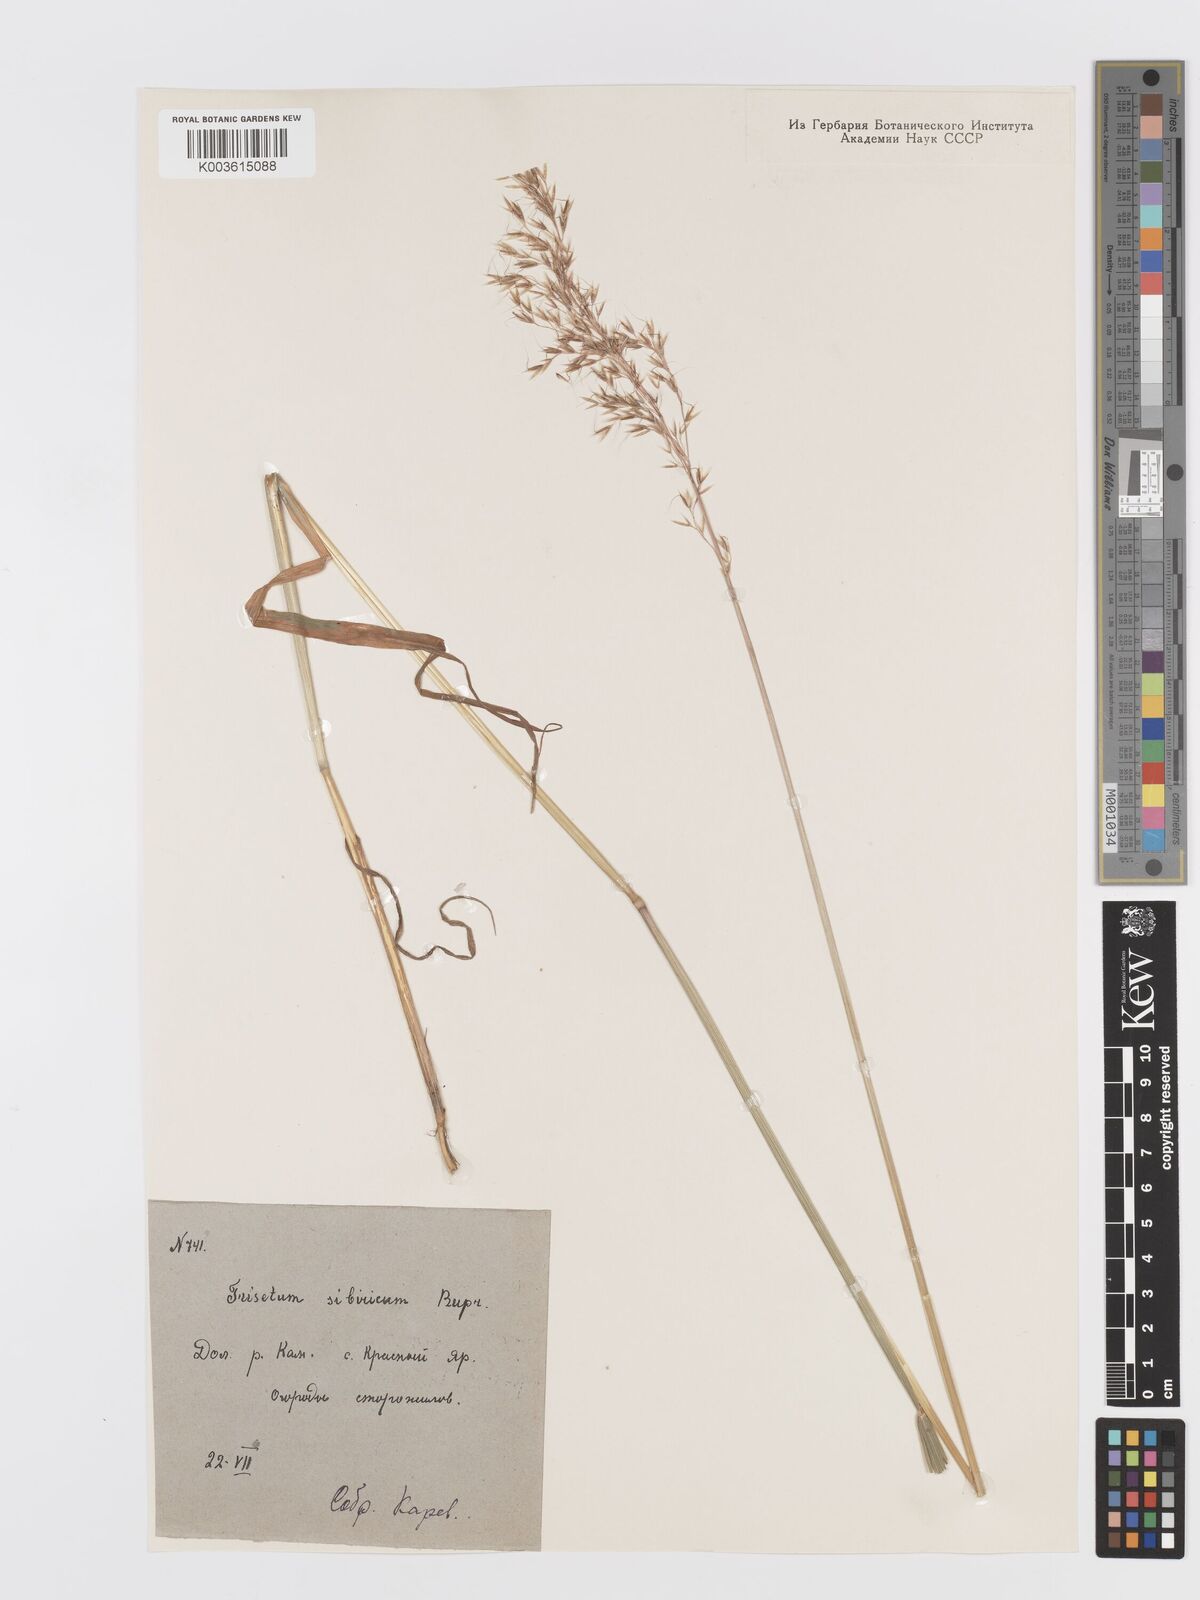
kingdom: Plantae
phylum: Tracheophyta
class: Liliopsida
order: Poales
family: Poaceae
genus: Sibirotrisetum
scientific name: Sibirotrisetum sibiricum
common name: Siberian false oat
